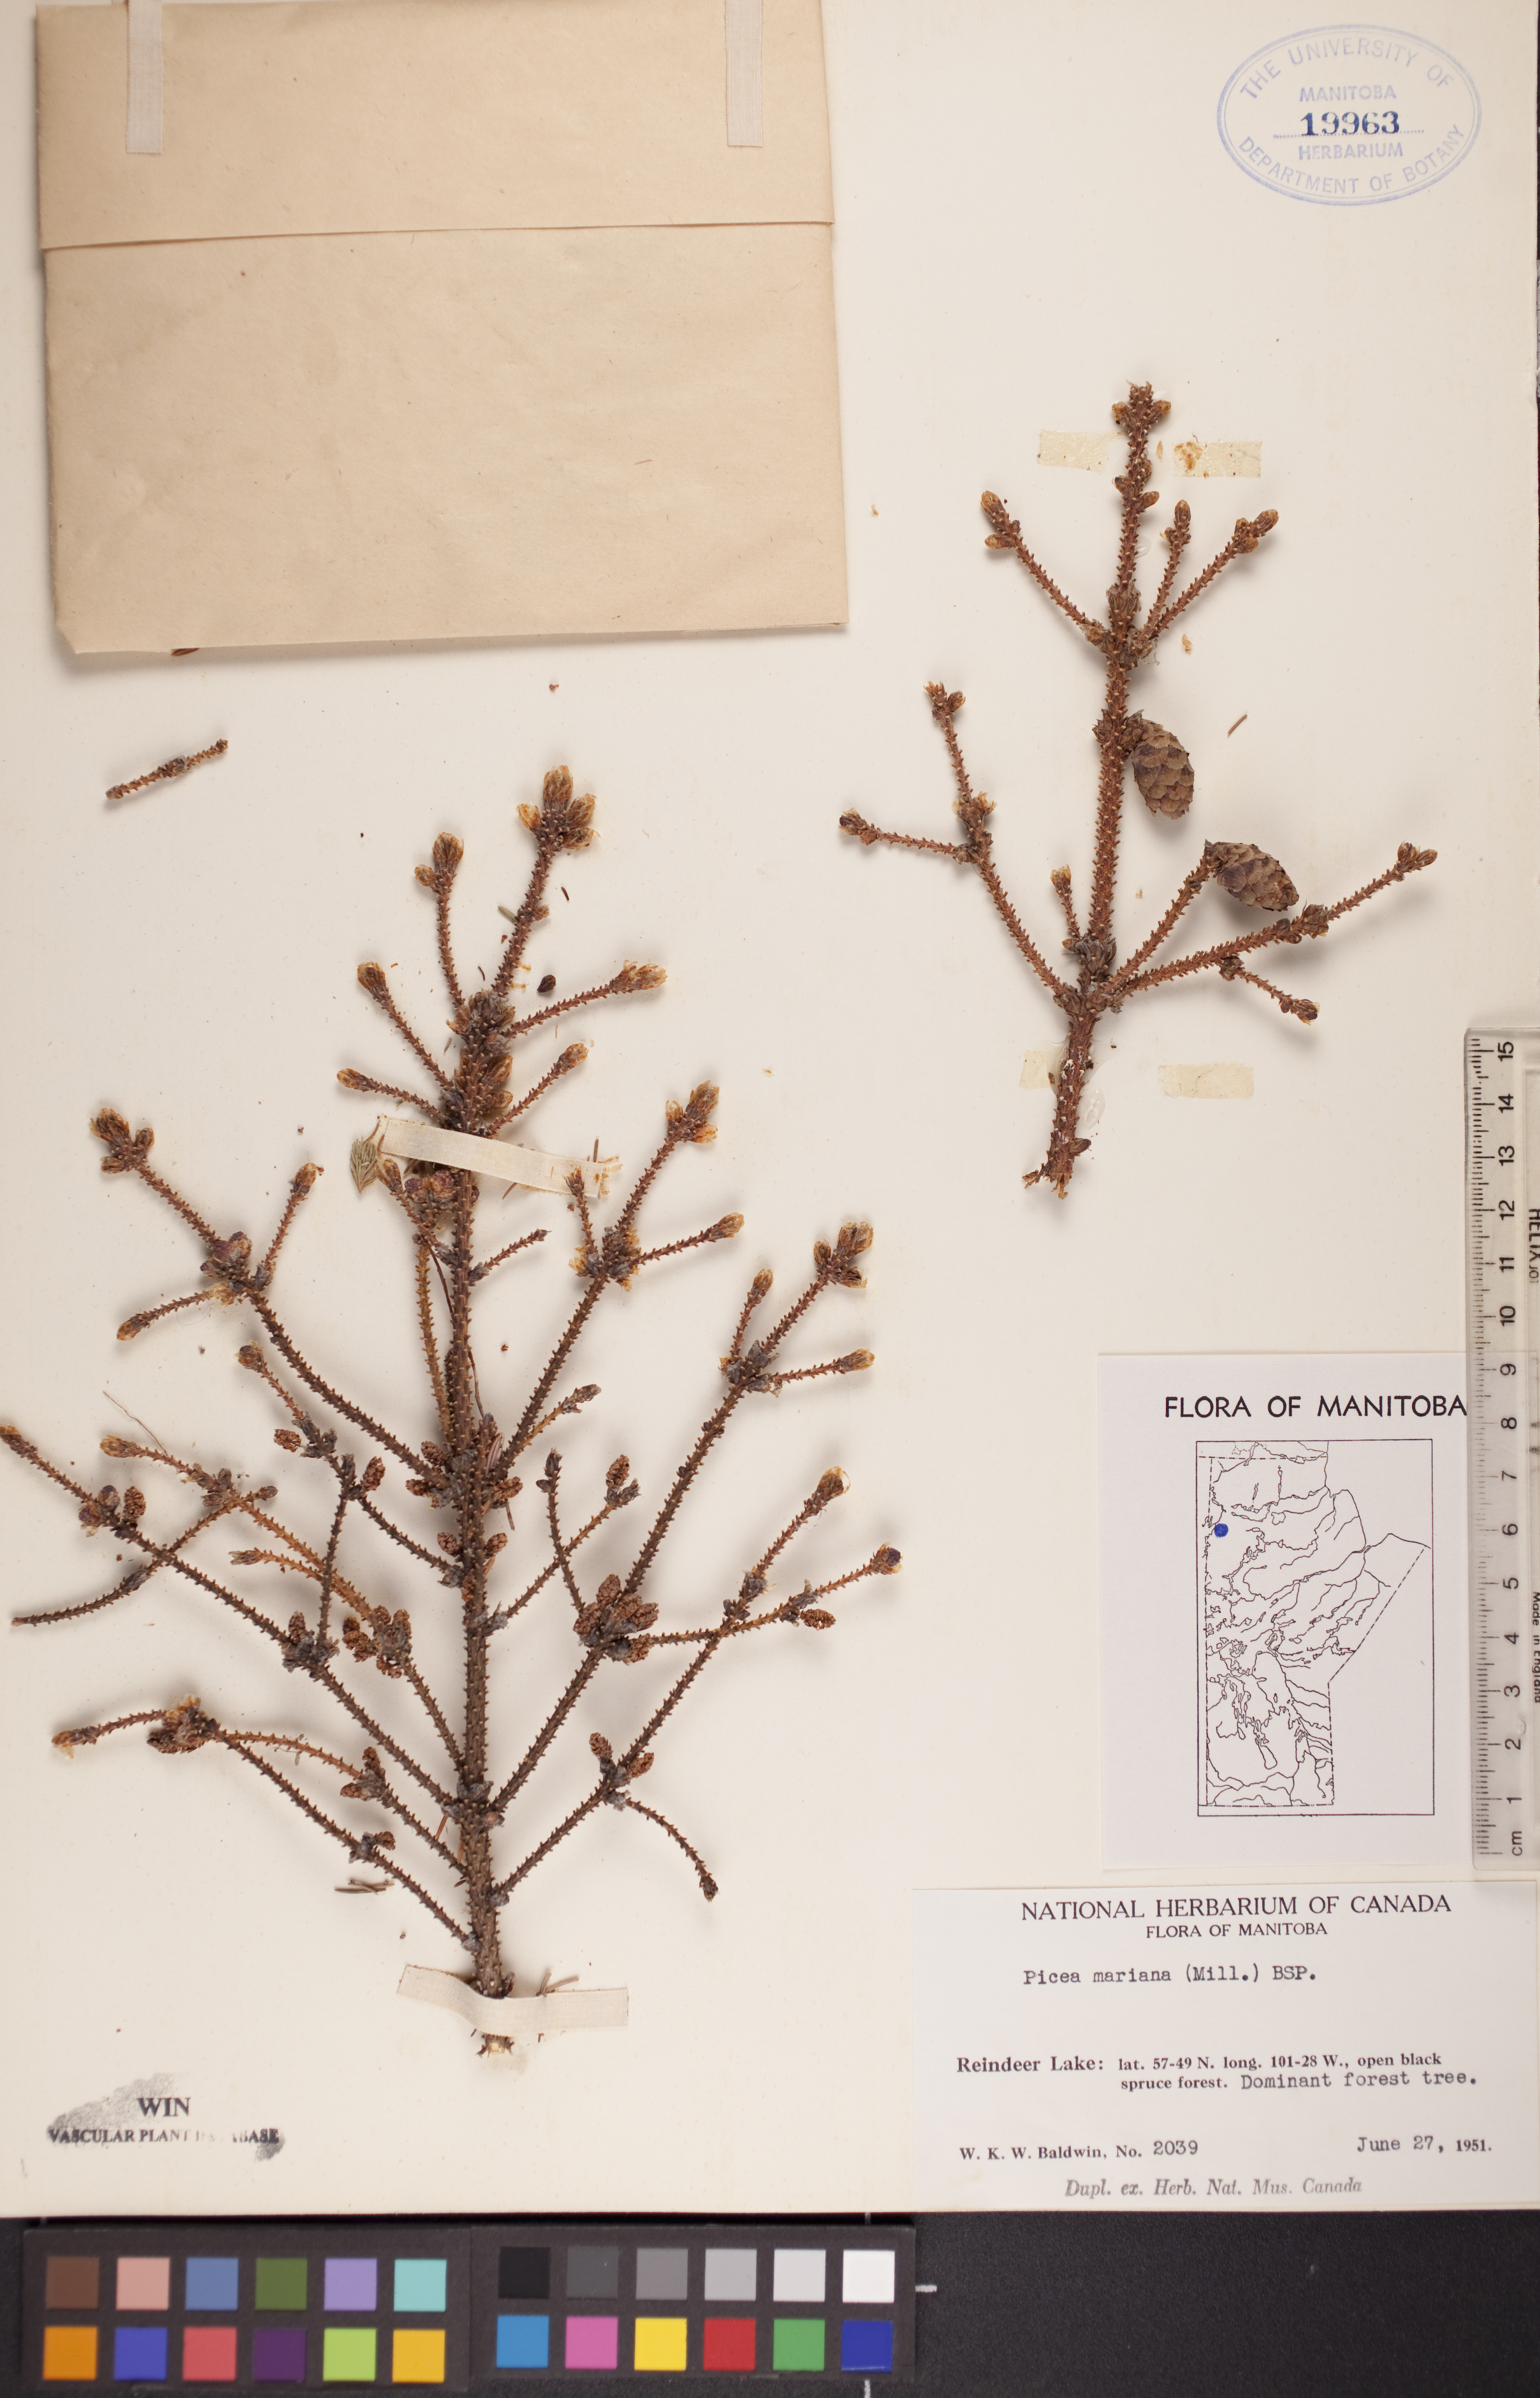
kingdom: Plantae
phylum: Tracheophyta
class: Pinopsida
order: Pinales
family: Pinaceae
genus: Picea
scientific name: Picea mariana
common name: Black spruce
